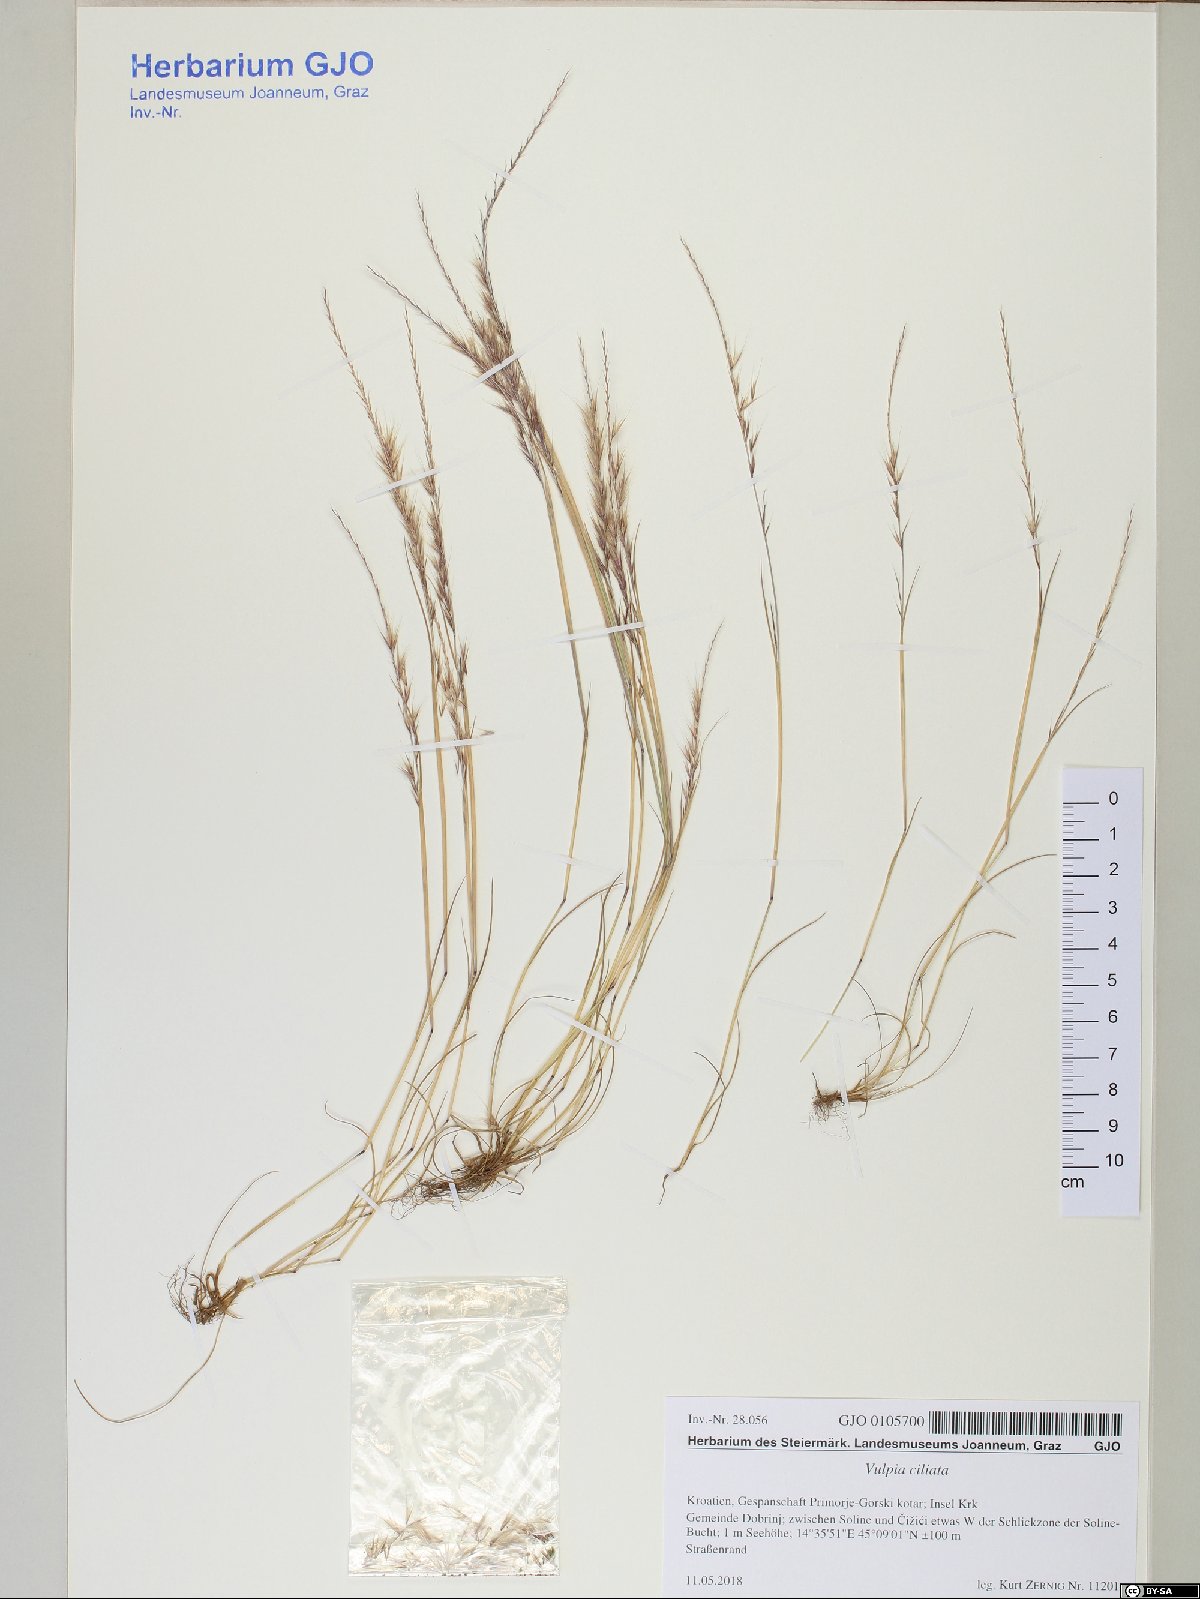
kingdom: Plantae
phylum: Tracheophyta
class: Liliopsida
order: Poales
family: Poaceae
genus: Festuca
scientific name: Festuca ambigua
